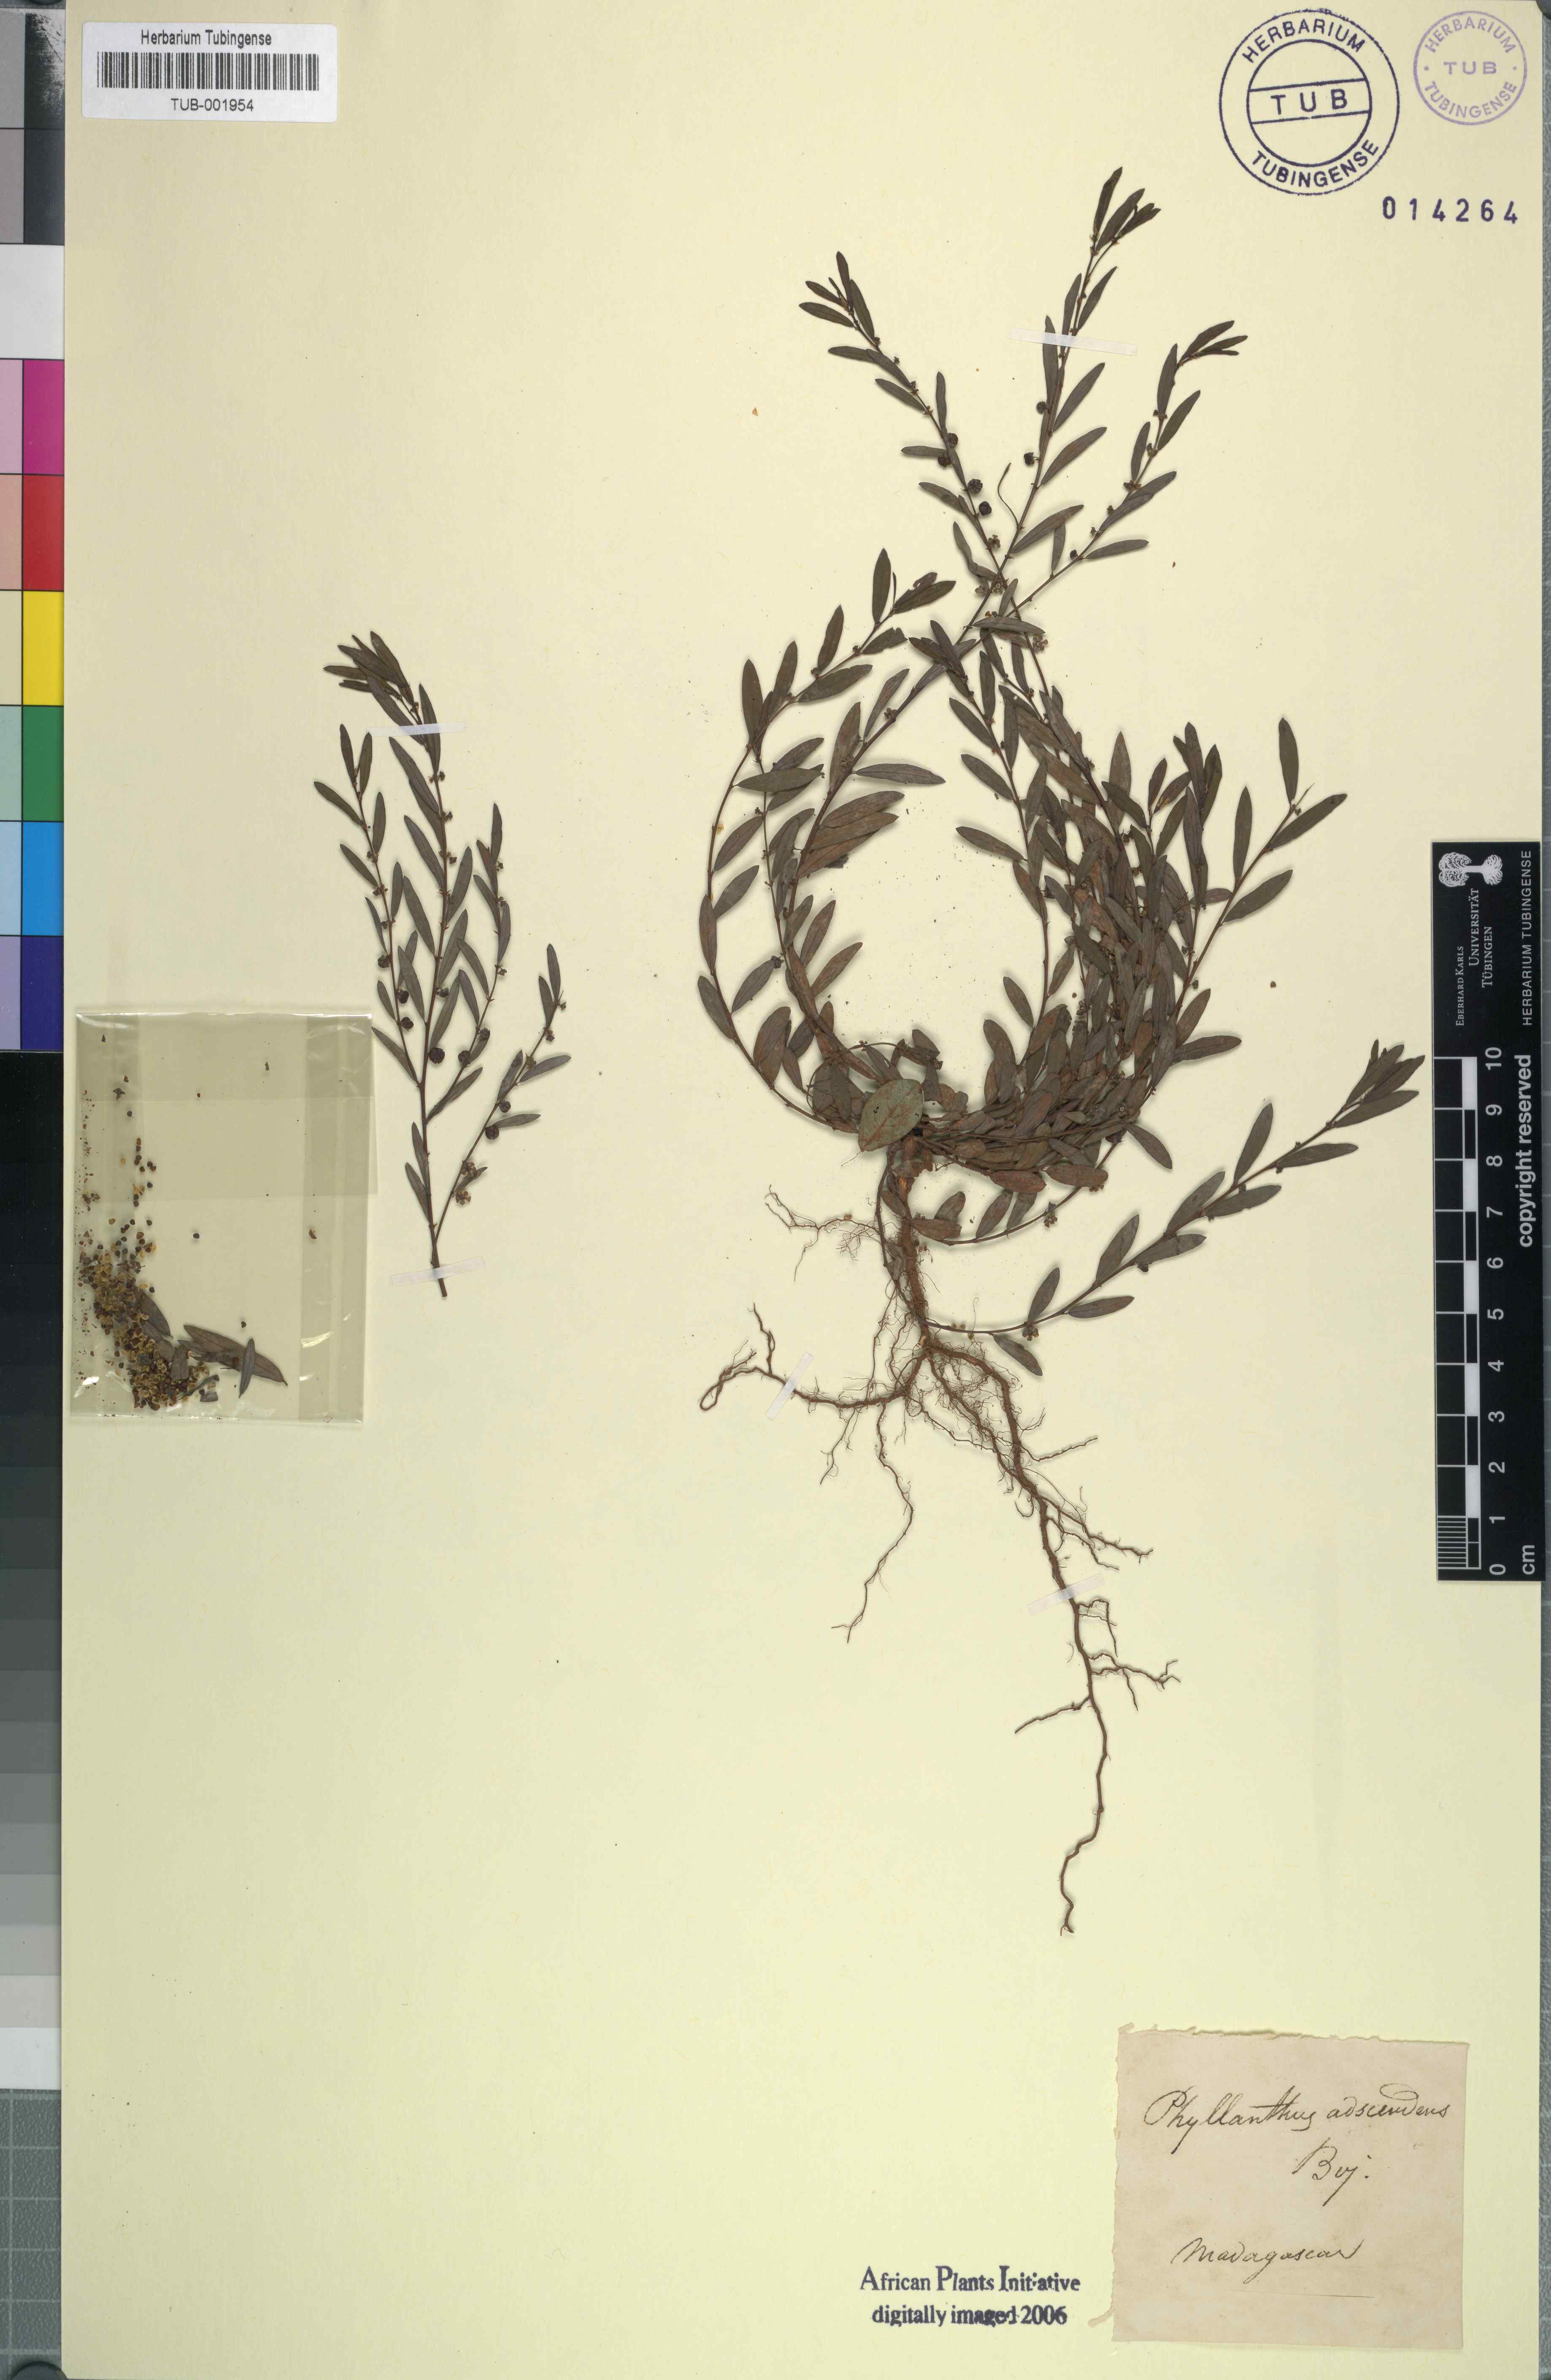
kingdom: Plantae
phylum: Tracheophyta
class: Magnoliopsida
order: Malpighiales
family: Phyllanthaceae
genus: Phyllanthus
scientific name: Phyllanthus
